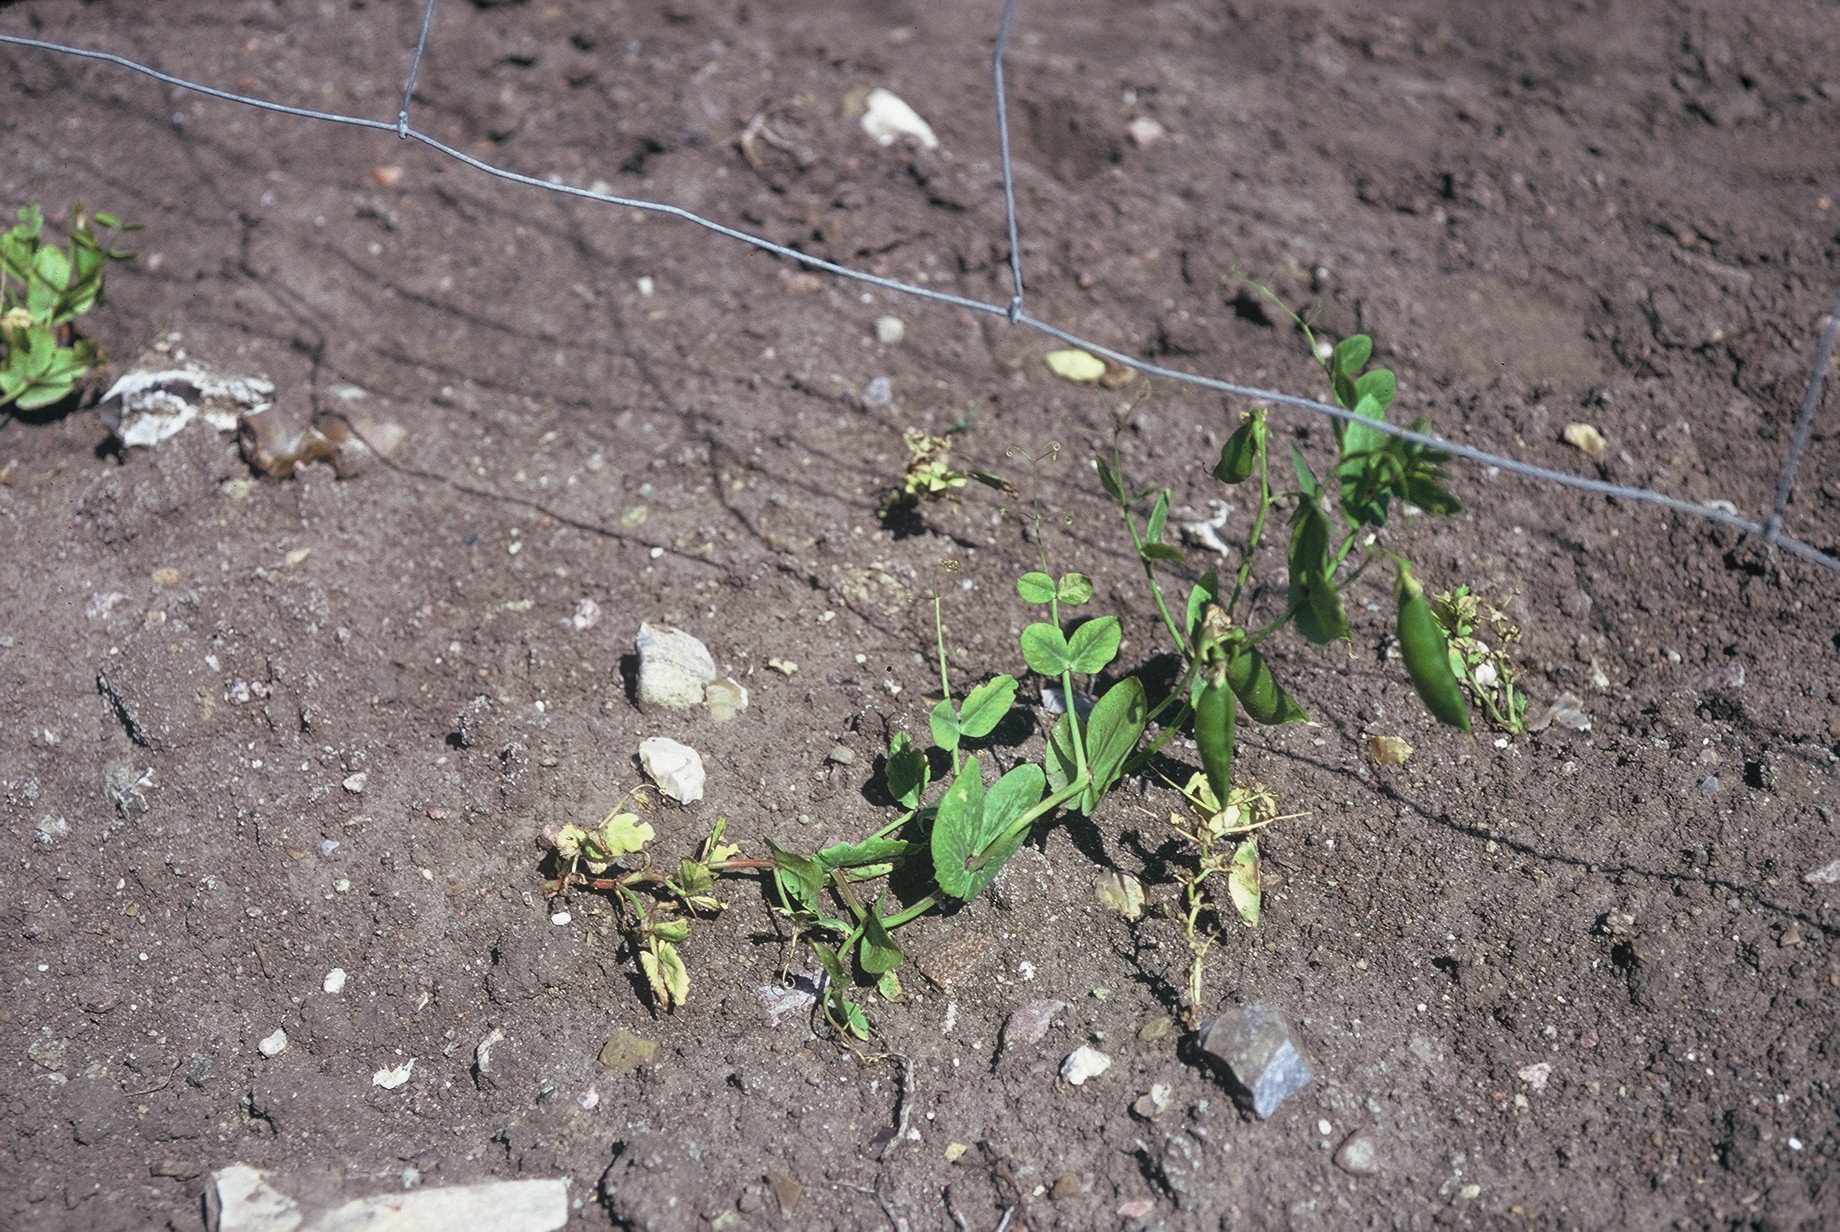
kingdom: Plantae
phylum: Tracheophyta
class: Magnoliopsida
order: Fabales
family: Fabaceae
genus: Lathyrus
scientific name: Lathyrus oleraceus
